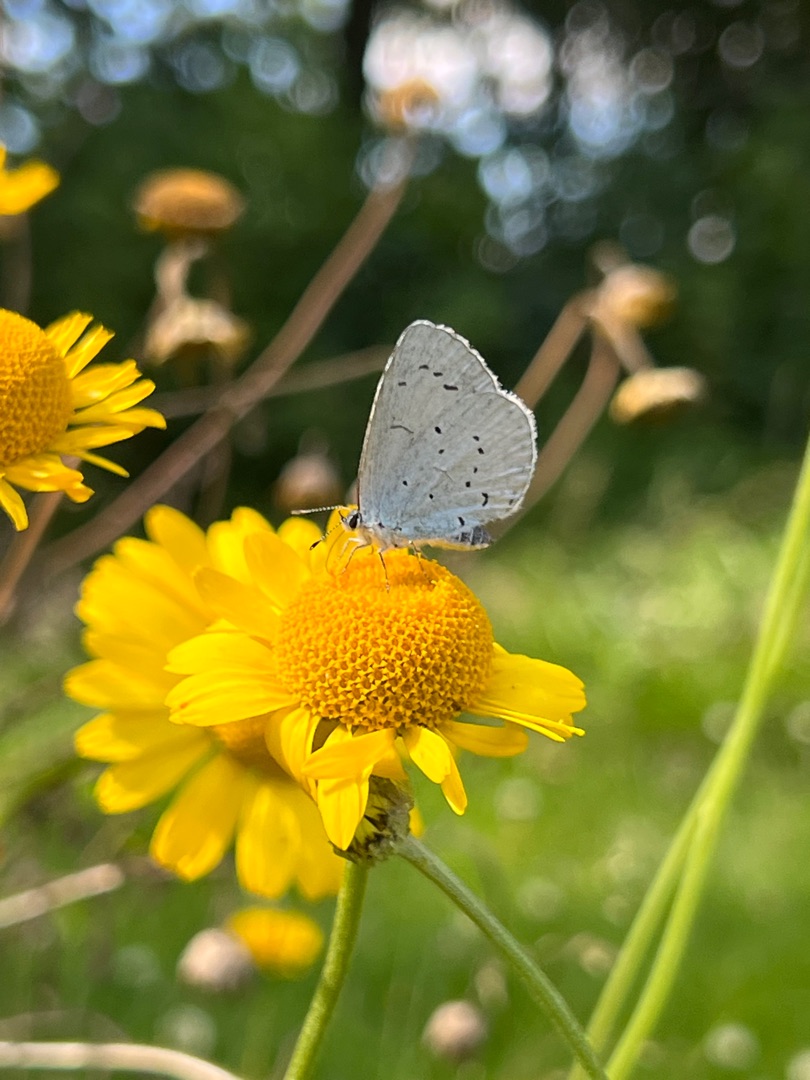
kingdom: Animalia
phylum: Arthropoda
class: Insecta
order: Lepidoptera
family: Lycaenidae
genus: Celastrina
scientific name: Celastrina argiolus
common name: Skovblåfugl
